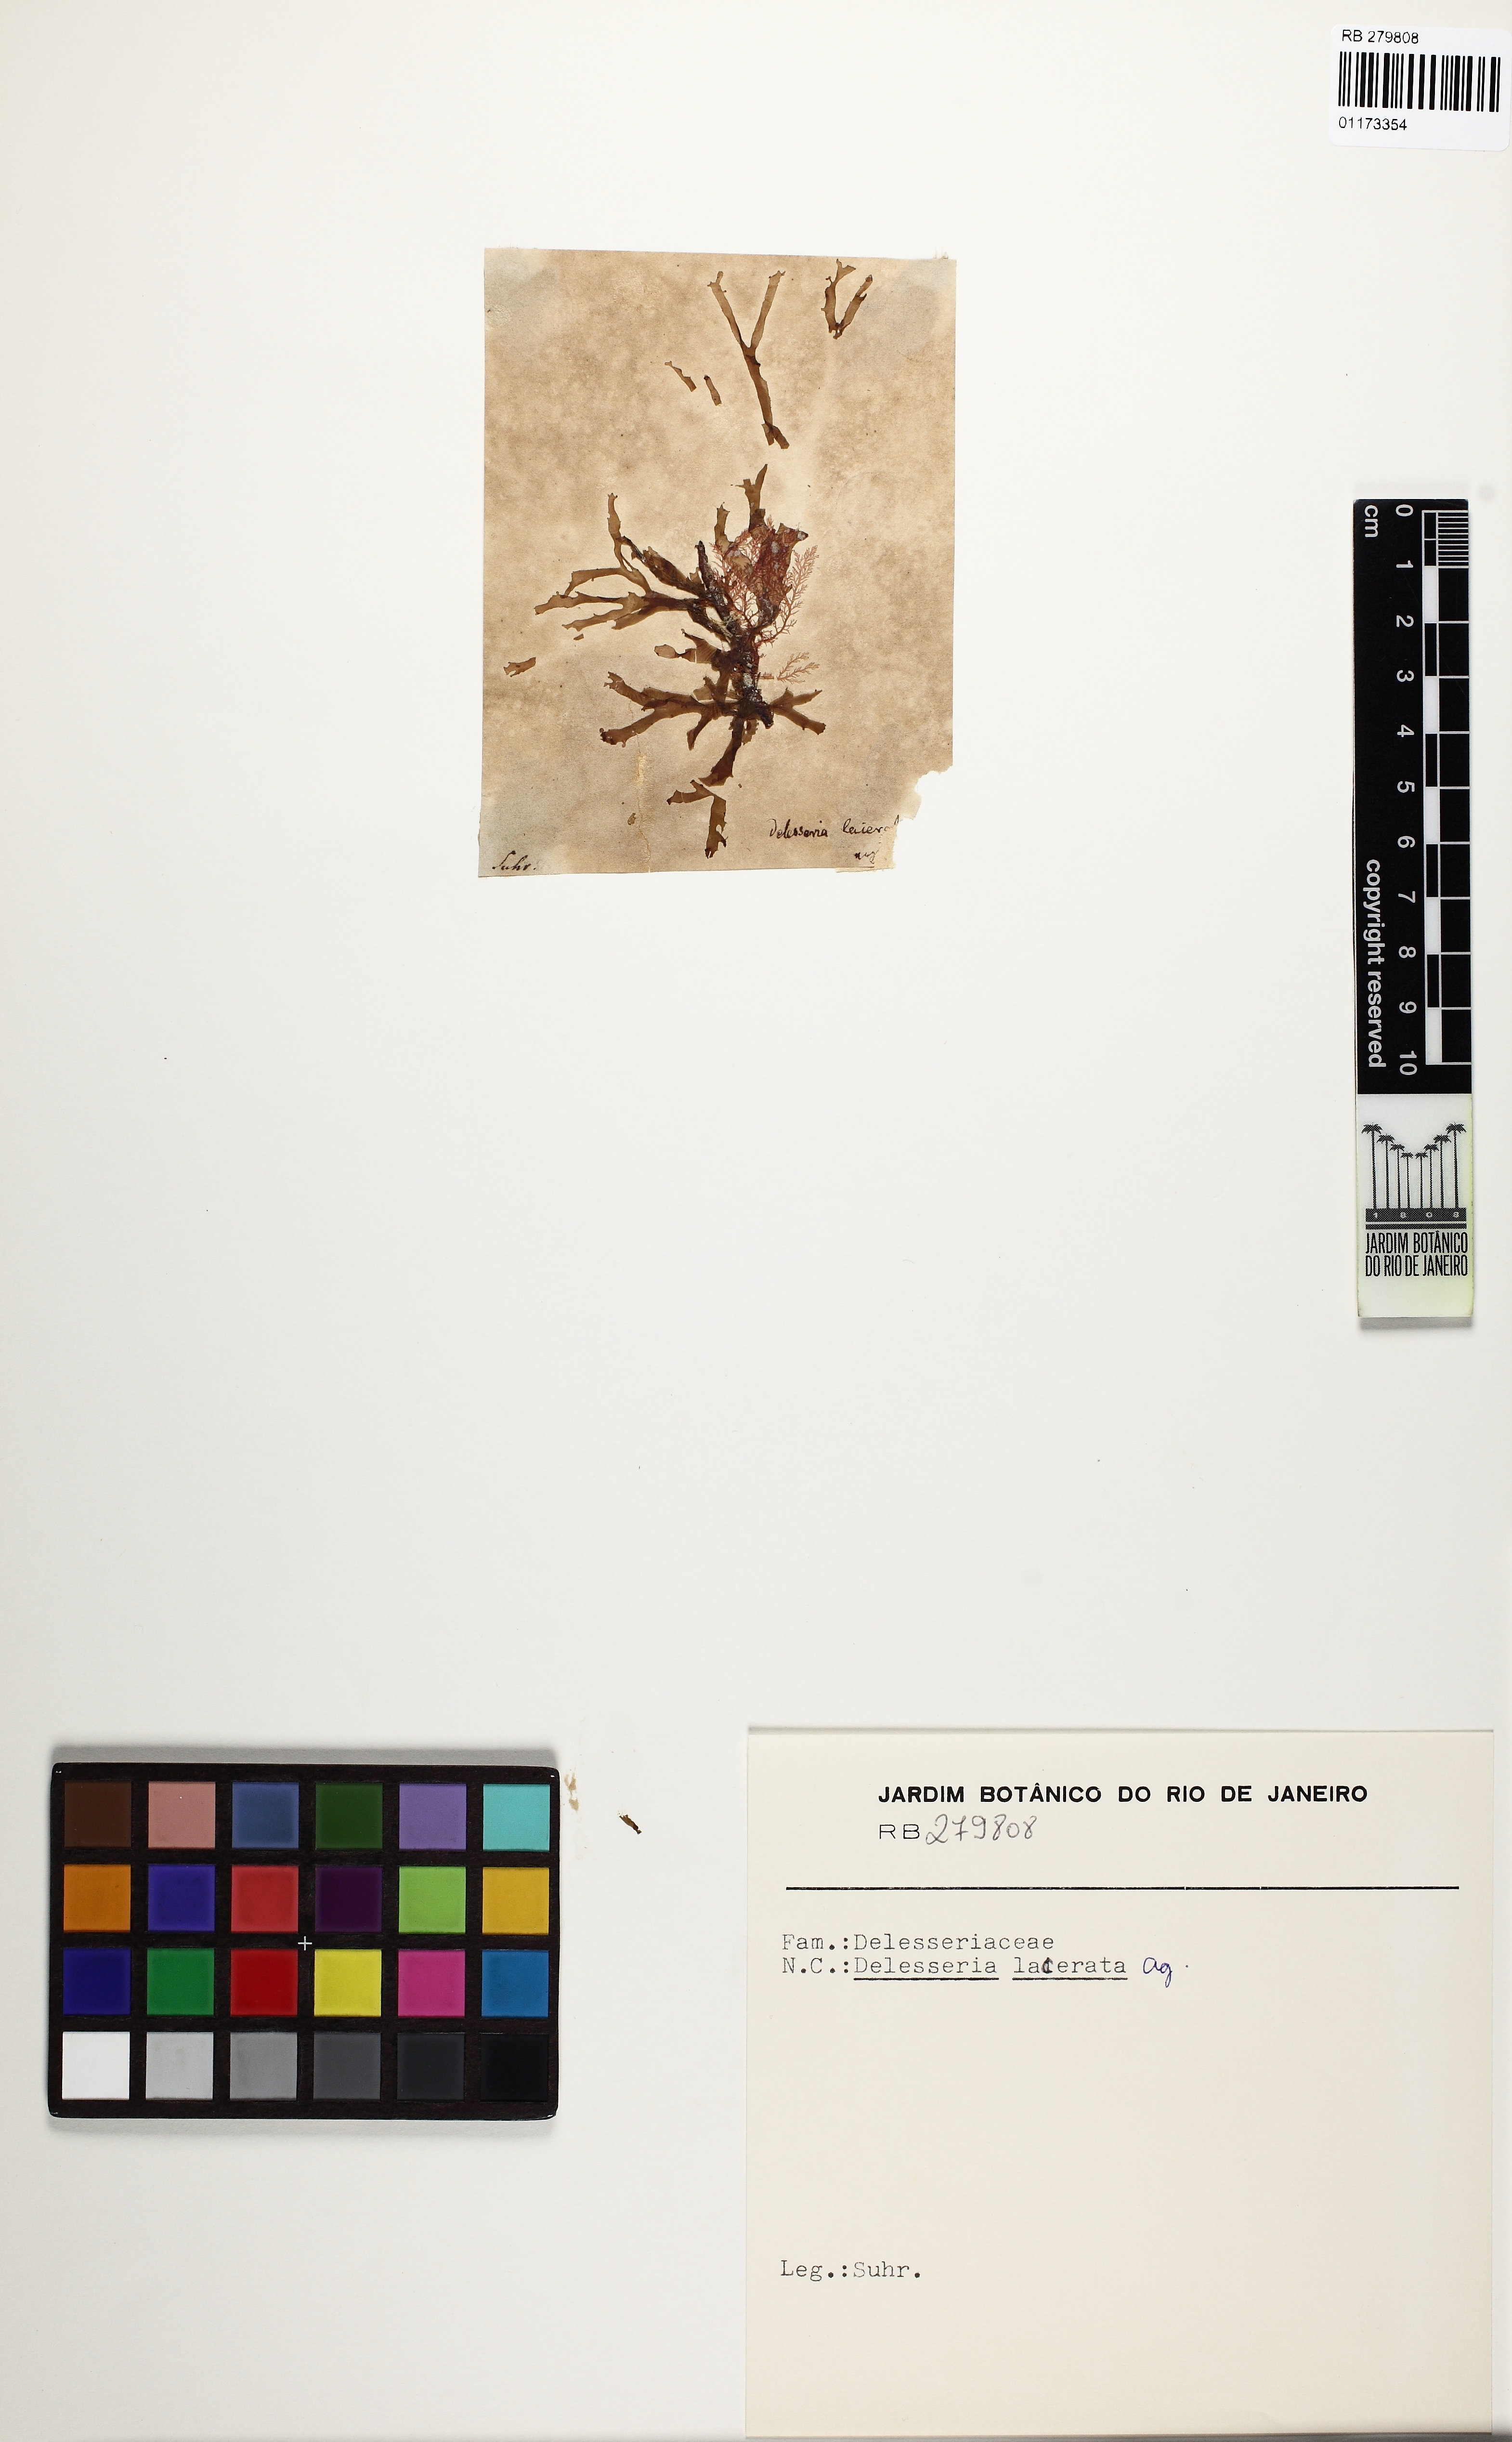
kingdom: Plantae
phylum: Rhodophyta
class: Florideophyceae
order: Ceramiales
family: Delesseriaceae
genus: Cryptopleura
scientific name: Cryptopleura ramosa
